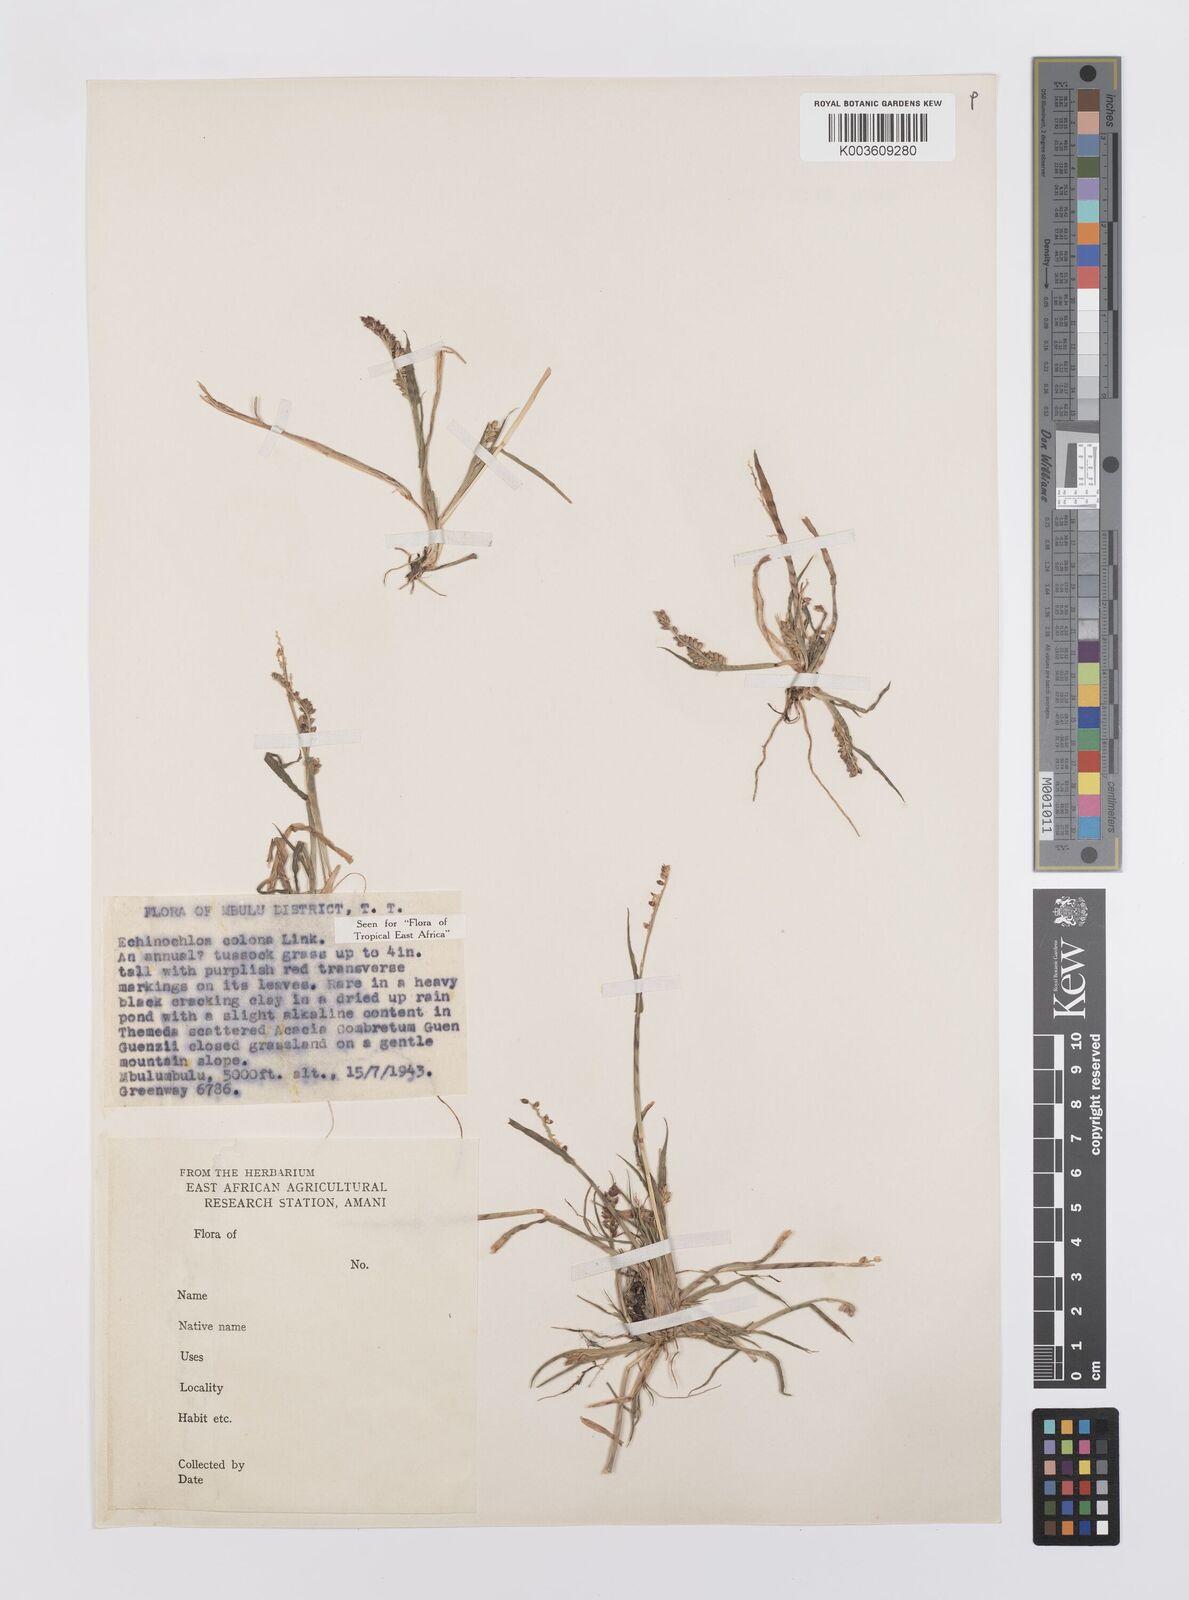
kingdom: Plantae
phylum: Tracheophyta
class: Liliopsida
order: Poales
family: Poaceae
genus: Echinochloa
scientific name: Echinochloa colonum
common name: Jungle rice
